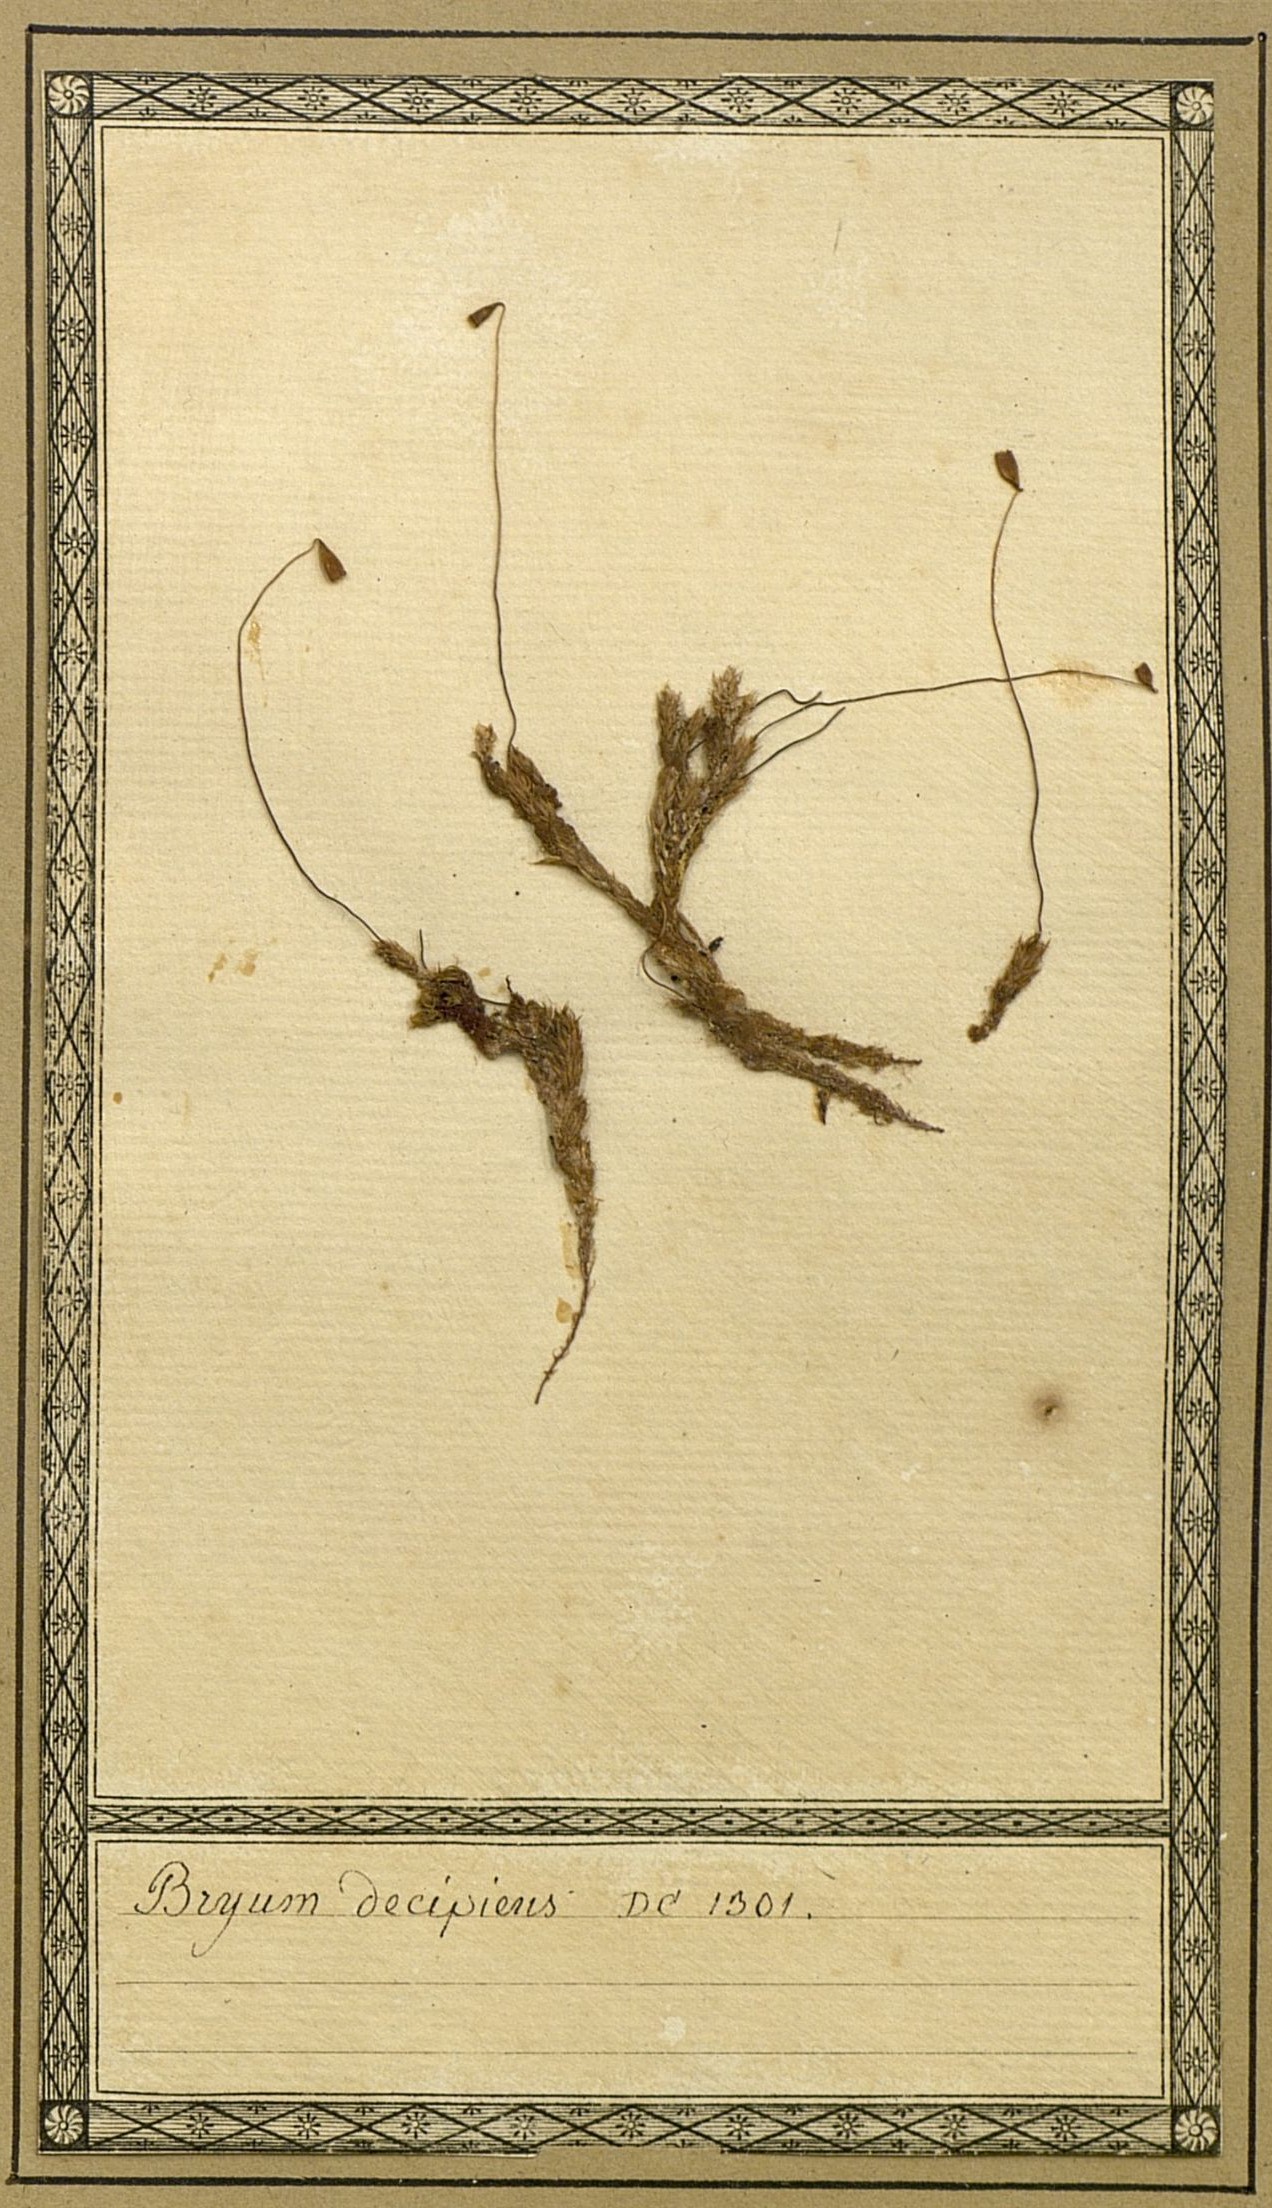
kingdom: Plantae
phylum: Bryophyta
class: Bryopsida
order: Bryales
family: Mniaceae
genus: Pohlia
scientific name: Pohlia annotina
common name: Pale-fruited nodding moss
